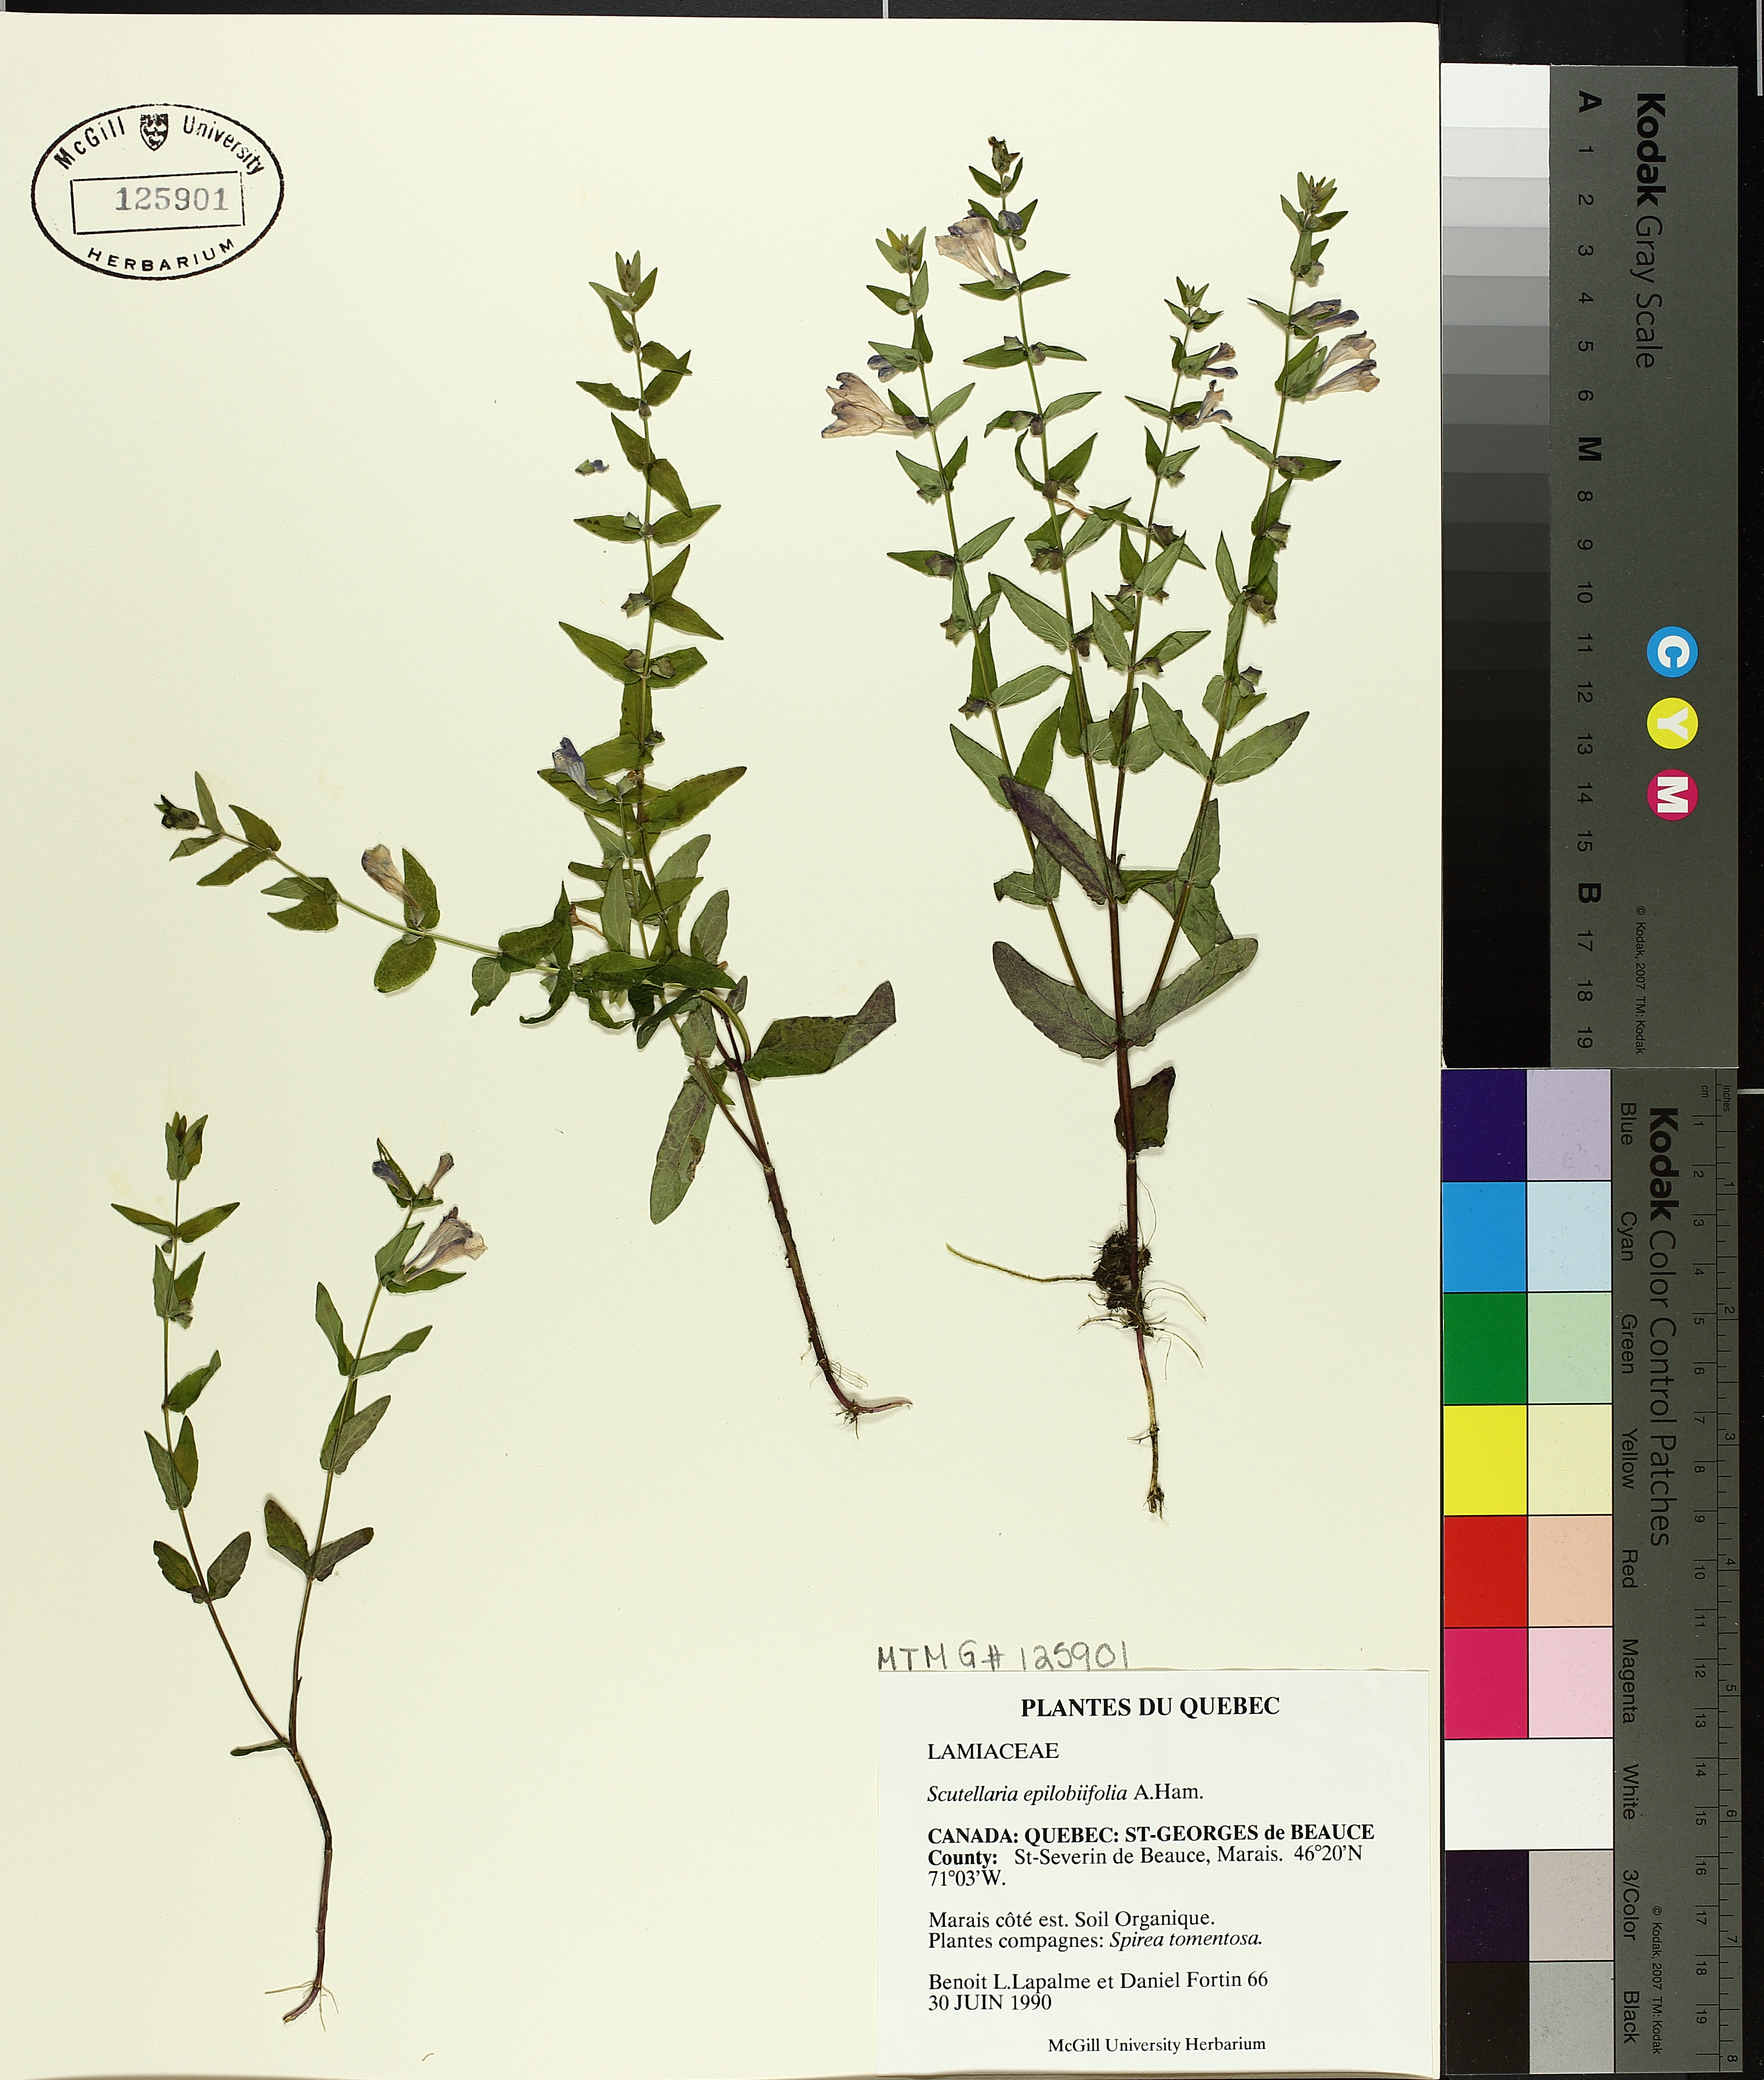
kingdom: Plantae
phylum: Tracheophyta
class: Magnoliopsida
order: Lamiales
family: Lamiaceae
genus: Scutellaria
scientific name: Scutellaria galericulata
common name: Skullcap
